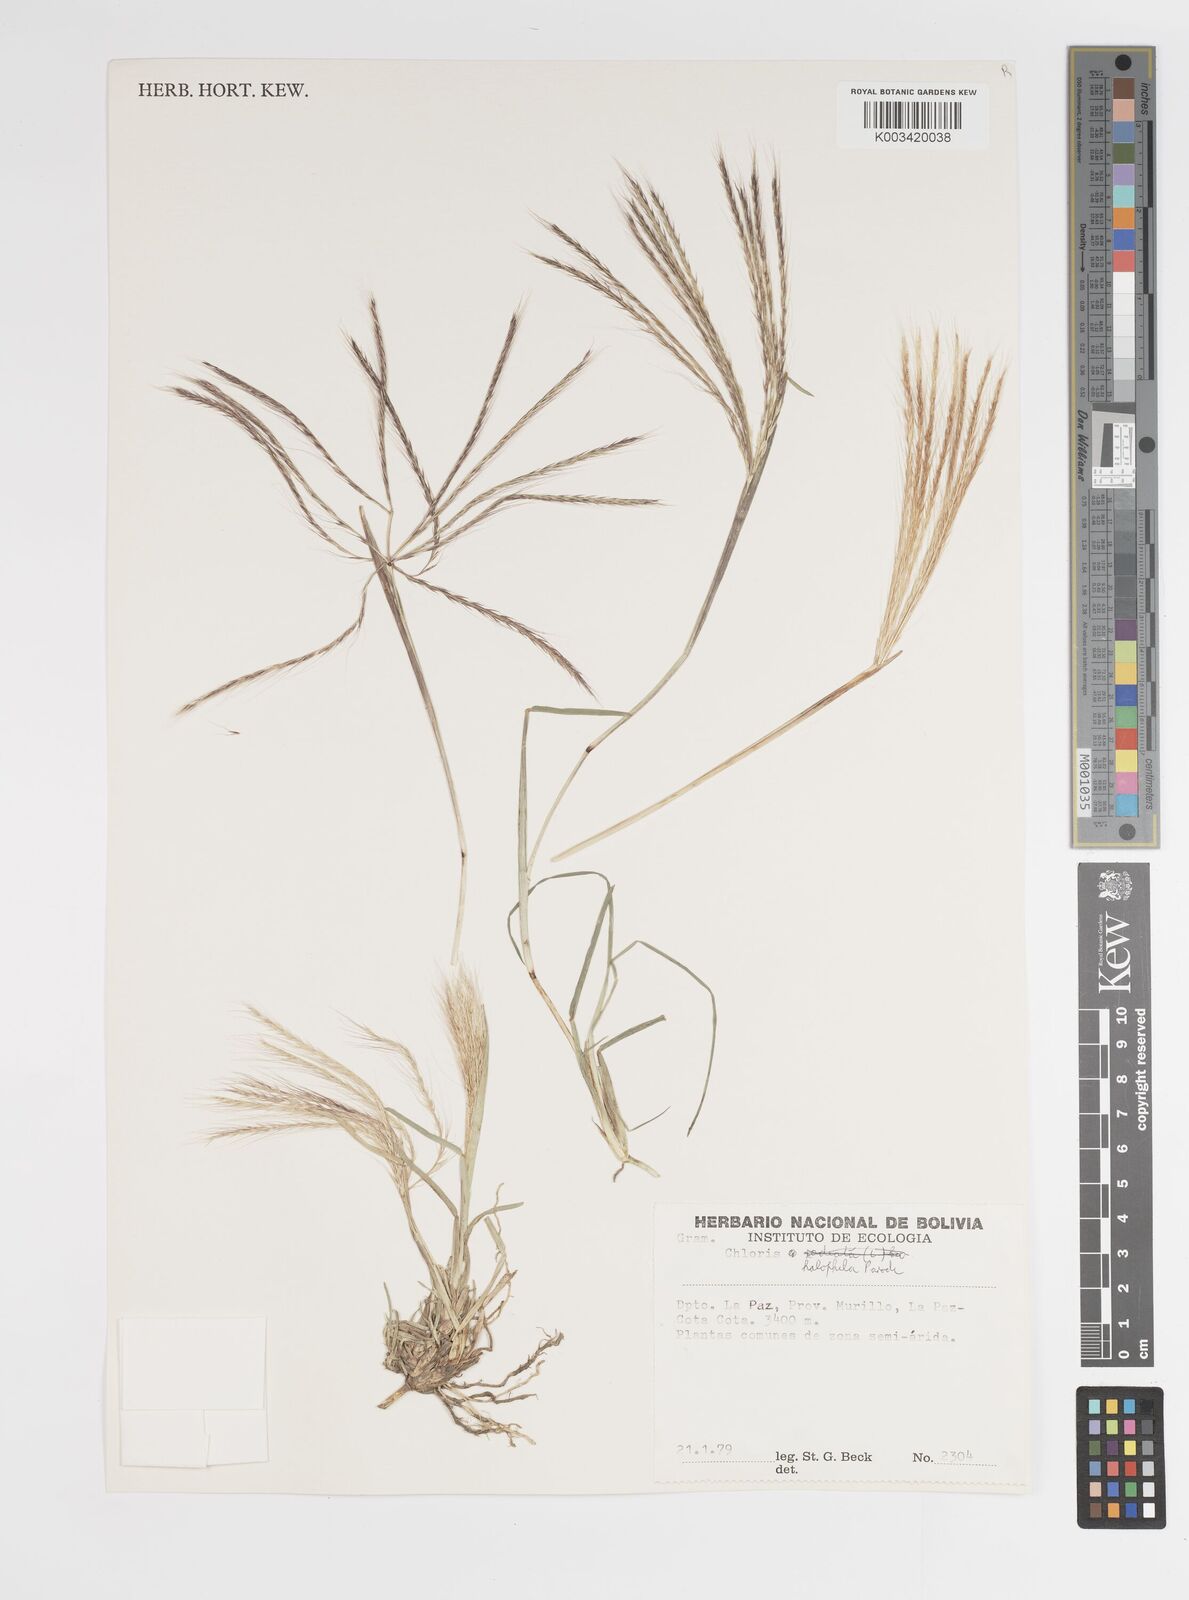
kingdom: Plantae
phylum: Tracheophyta
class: Liliopsida
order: Poales
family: Poaceae
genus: Chloris
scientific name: Chloris halophila
